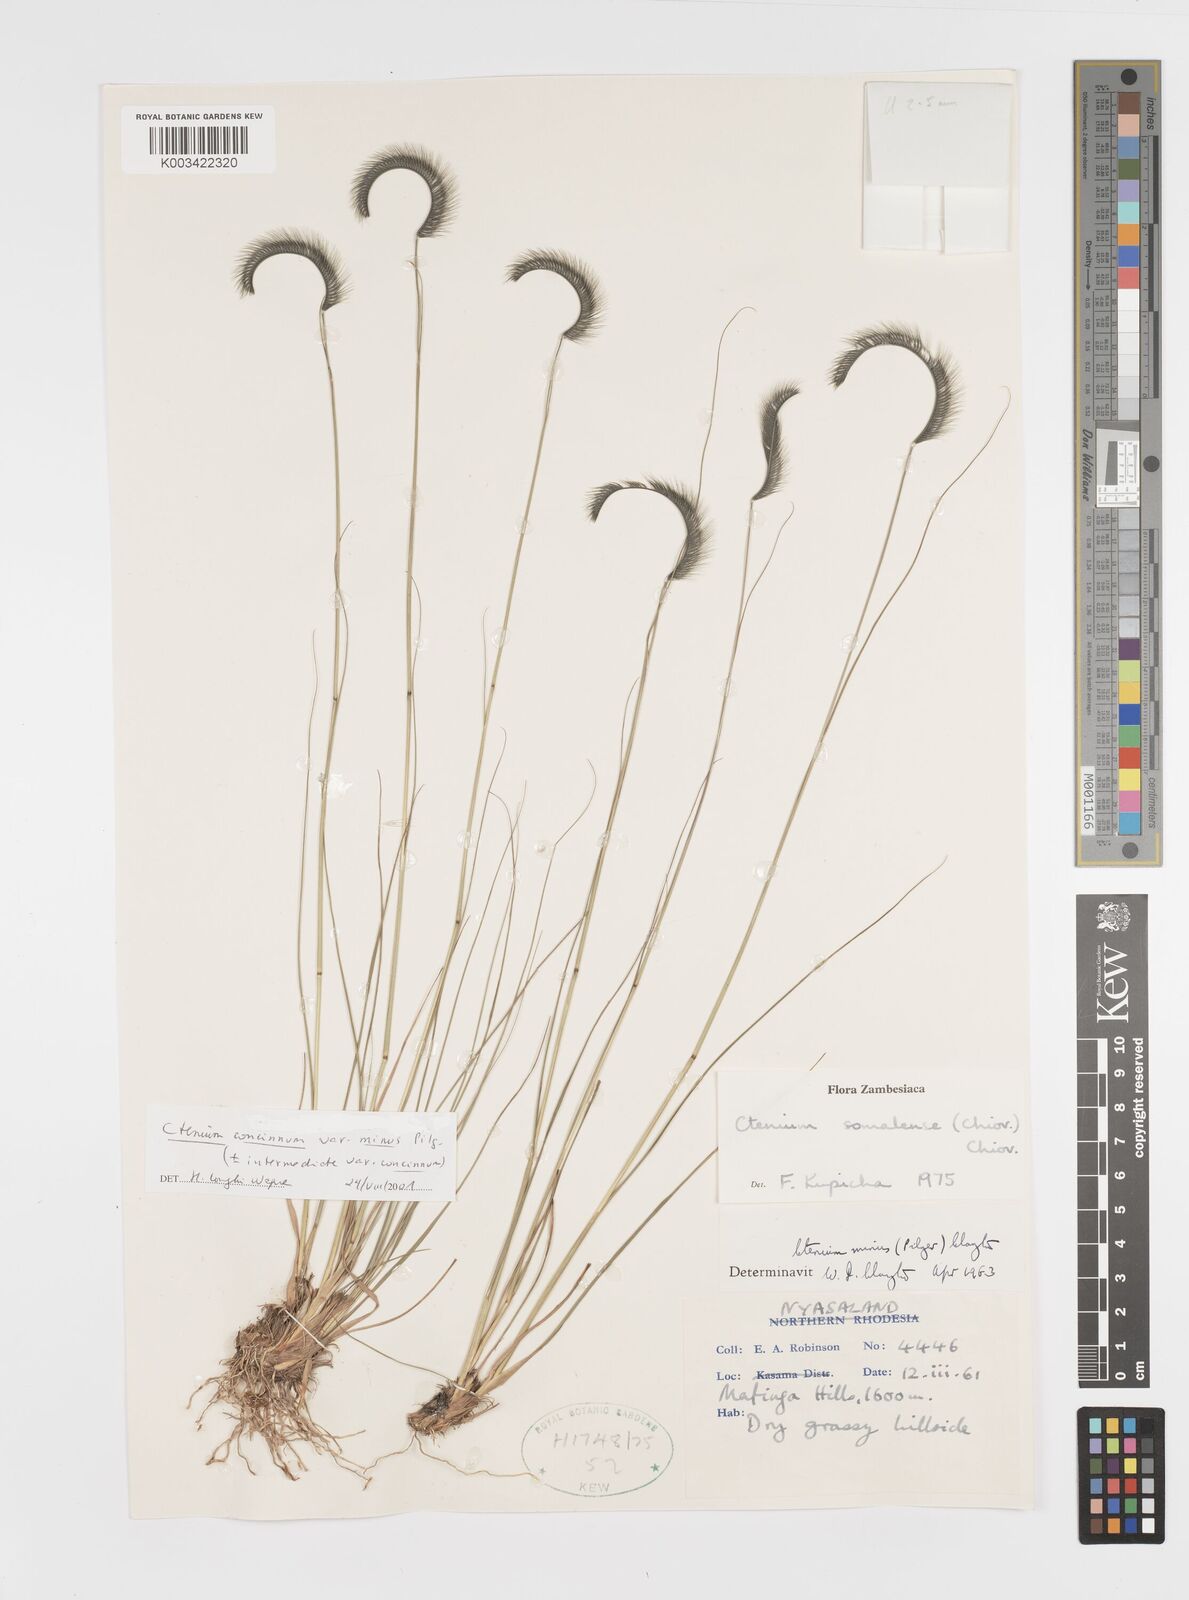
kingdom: Plantae
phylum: Tracheophyta
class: Liliopsida
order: Poales
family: Poaceae
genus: Ctenium
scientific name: Ctenium concinnum
